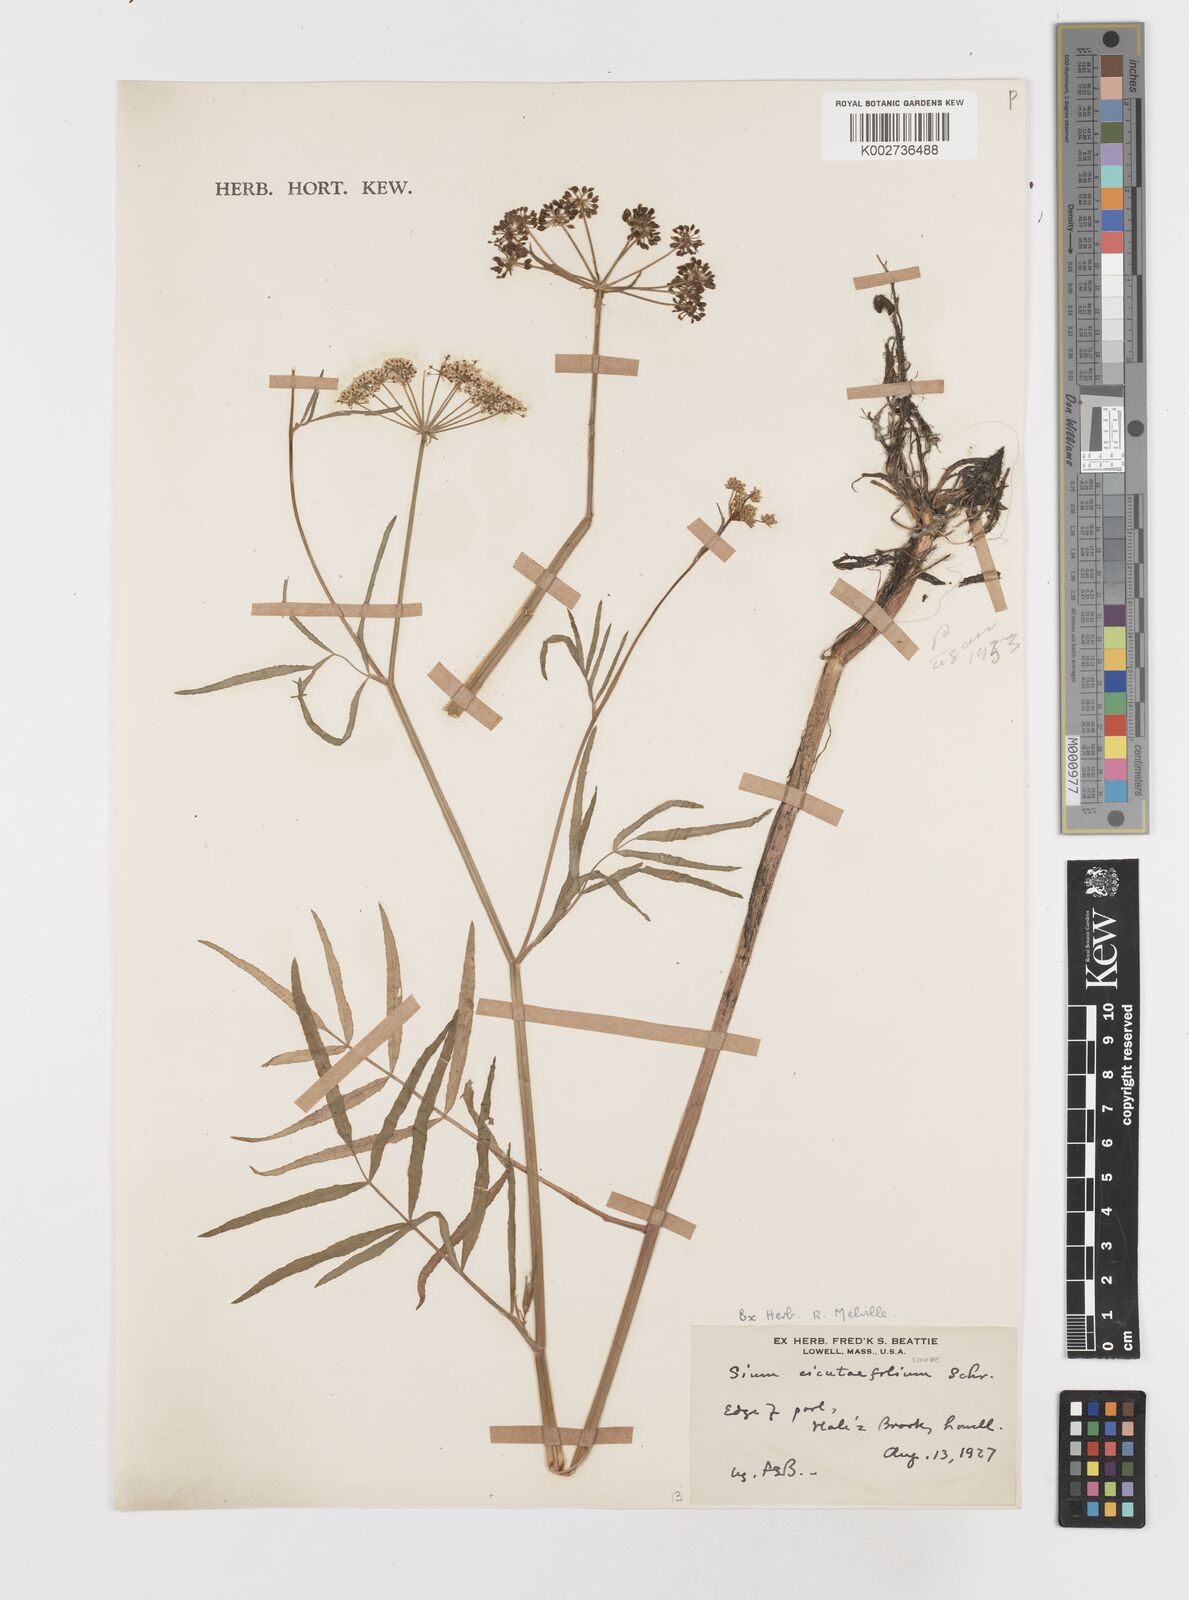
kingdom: Plantae
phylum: Tracheophyta
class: Magnoliopsida
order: Apiales
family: Apiaceae
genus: Sium
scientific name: Sium suave
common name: Hemlock water-parsnip
